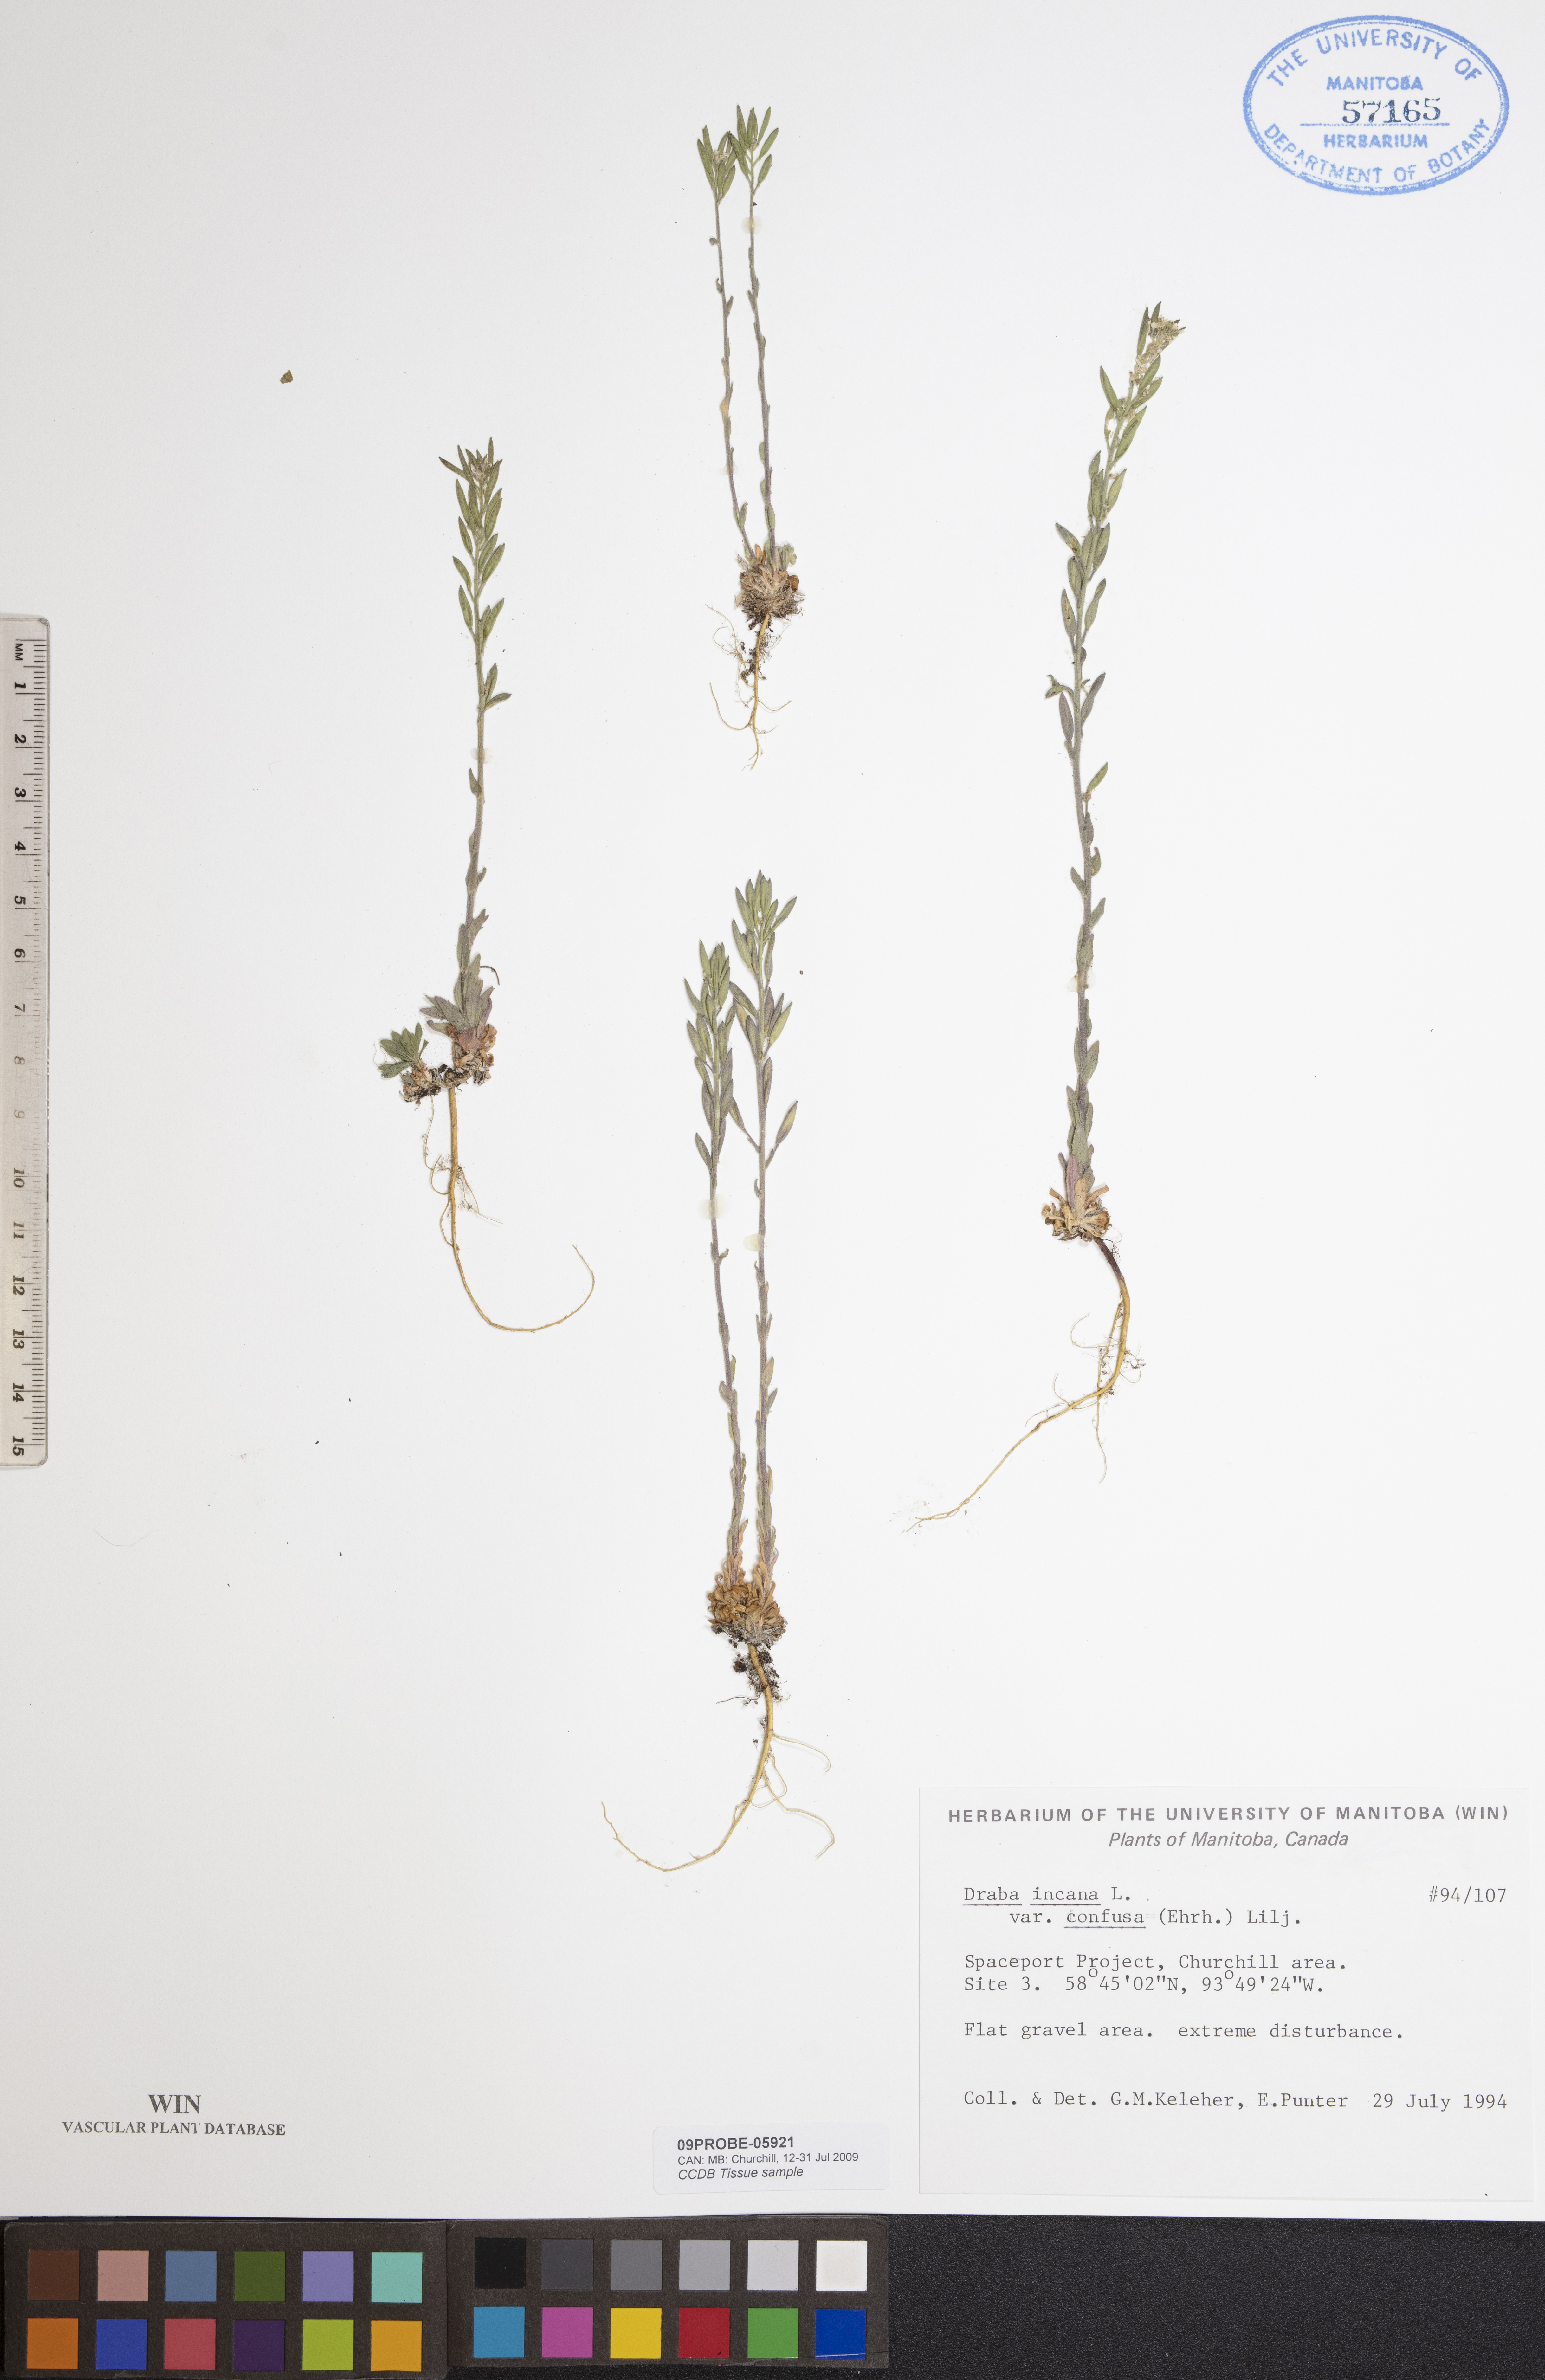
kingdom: Plantae
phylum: Tracheophyta
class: Magnoliopsida
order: Brassicales
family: Brassicaceae
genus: Draba
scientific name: Draba incana
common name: Hoary whitlow-grass
